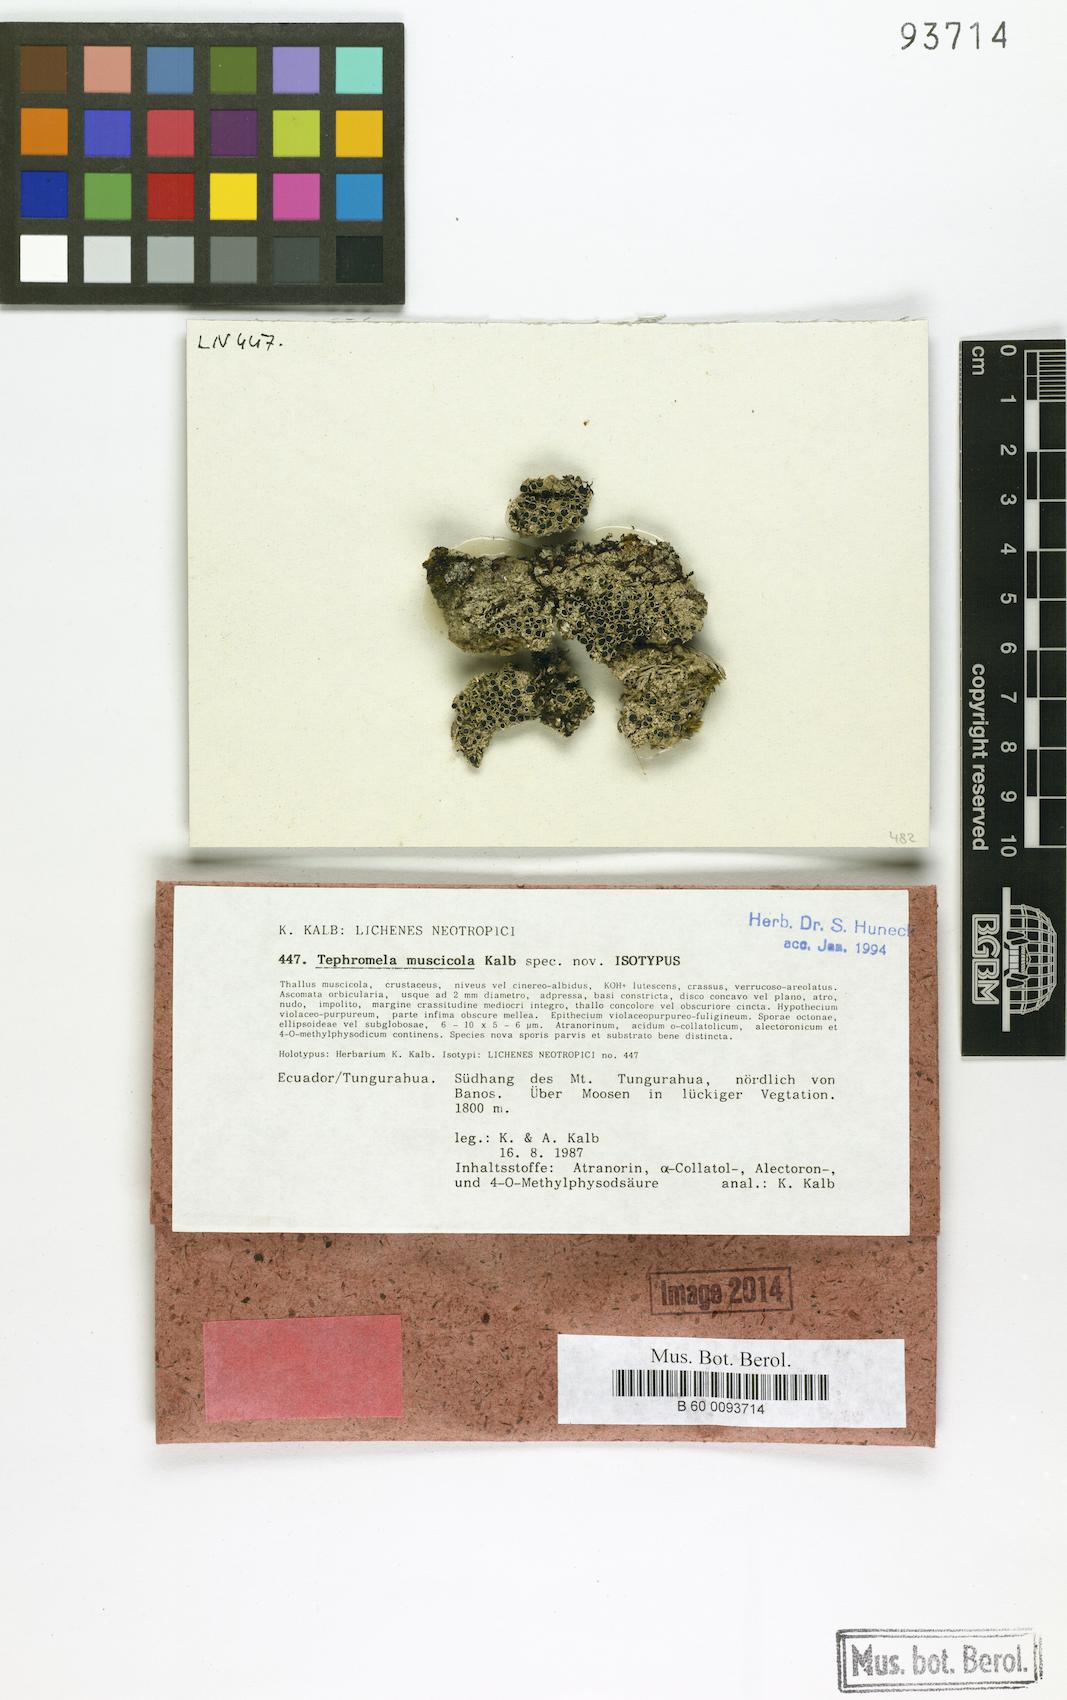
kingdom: Fungi
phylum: Ascomycota
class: Lecanoromycetes
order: Lecanorales
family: Tephromelataceae
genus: Tephromela
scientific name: Tephromela muscicola
